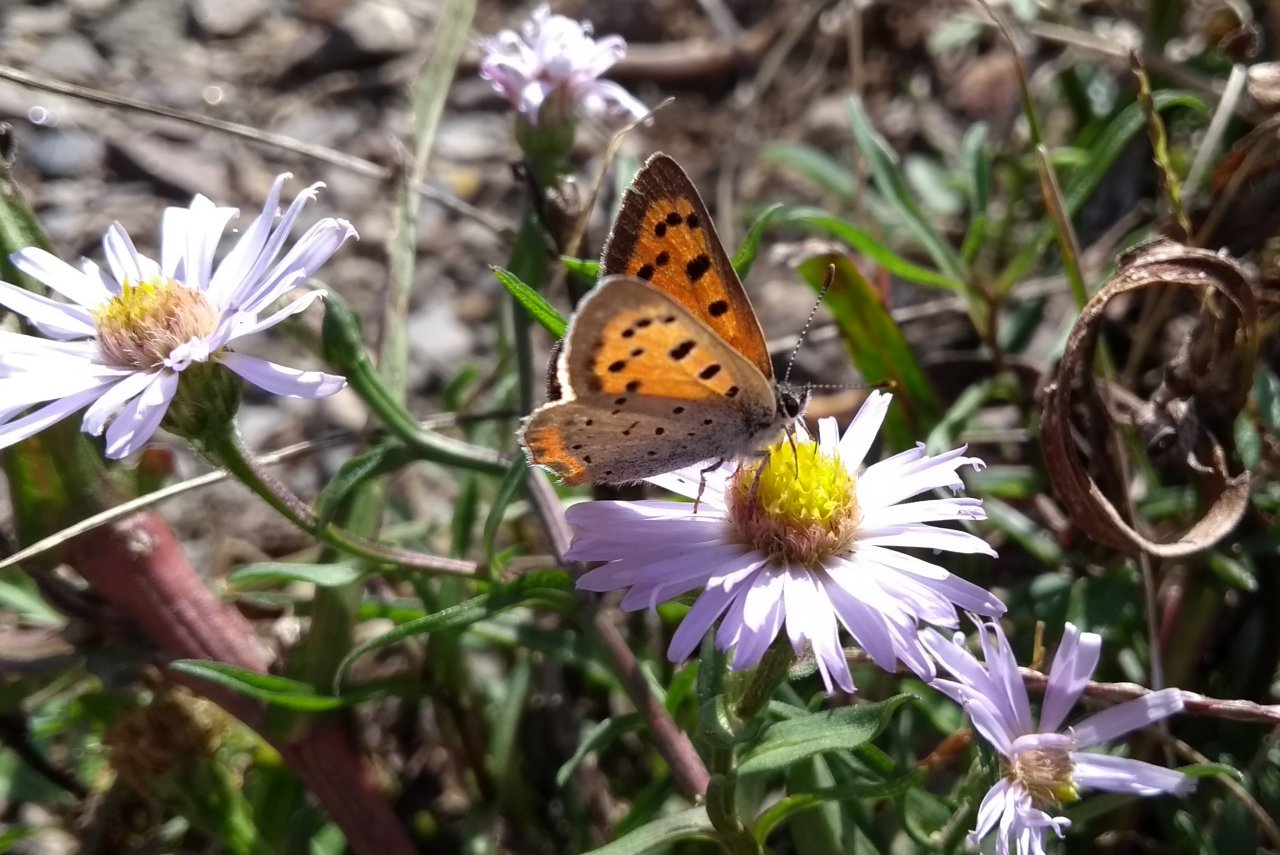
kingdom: Animalia
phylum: Arthropoda
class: Insecta
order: Lepidoptera
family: Lycaenidae
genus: Lycaena
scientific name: Lycaena phlaeas
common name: American Copper
